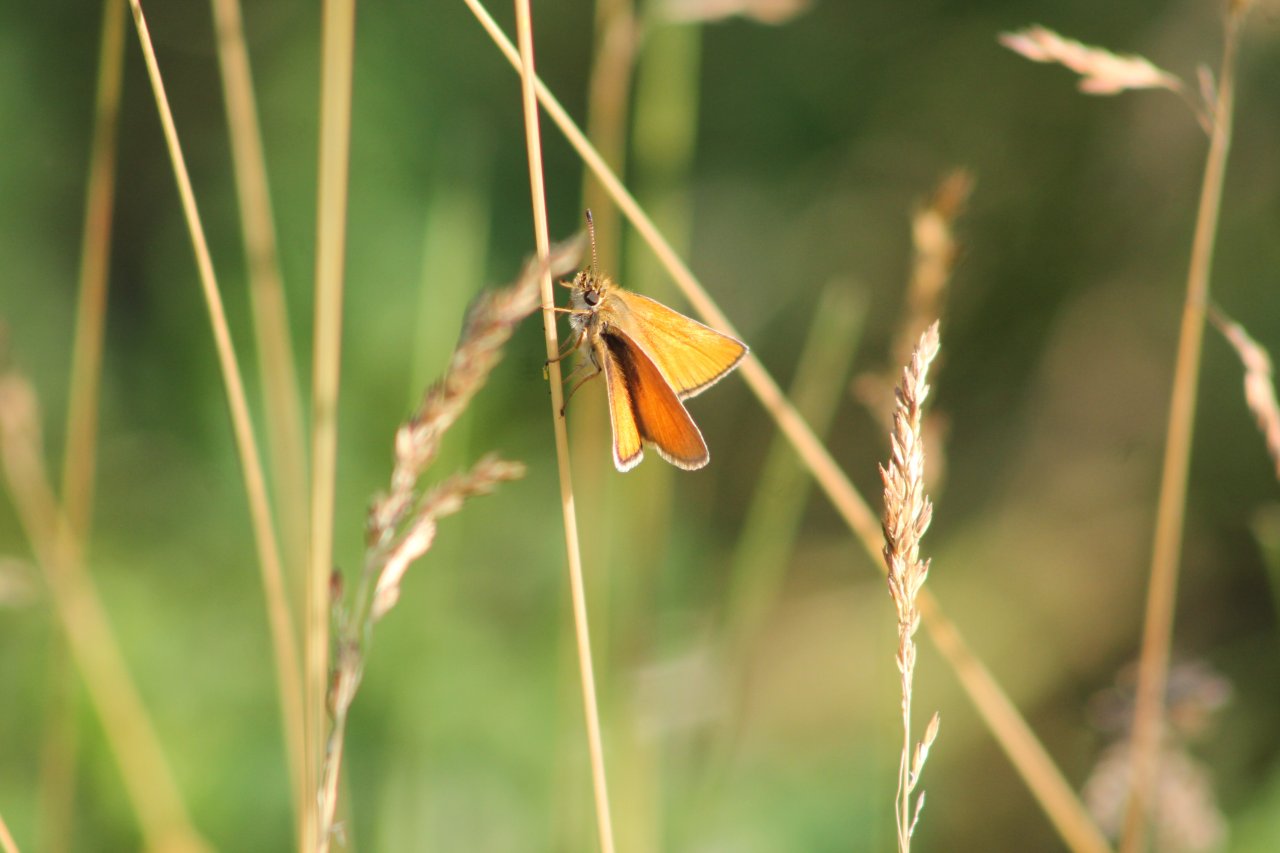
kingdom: Animalia
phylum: Arthropoda
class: Insecta
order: Lepidoptera
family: Hesperiidae
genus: Thymelicus
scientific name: Thymelicus lineola
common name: European Skipper
